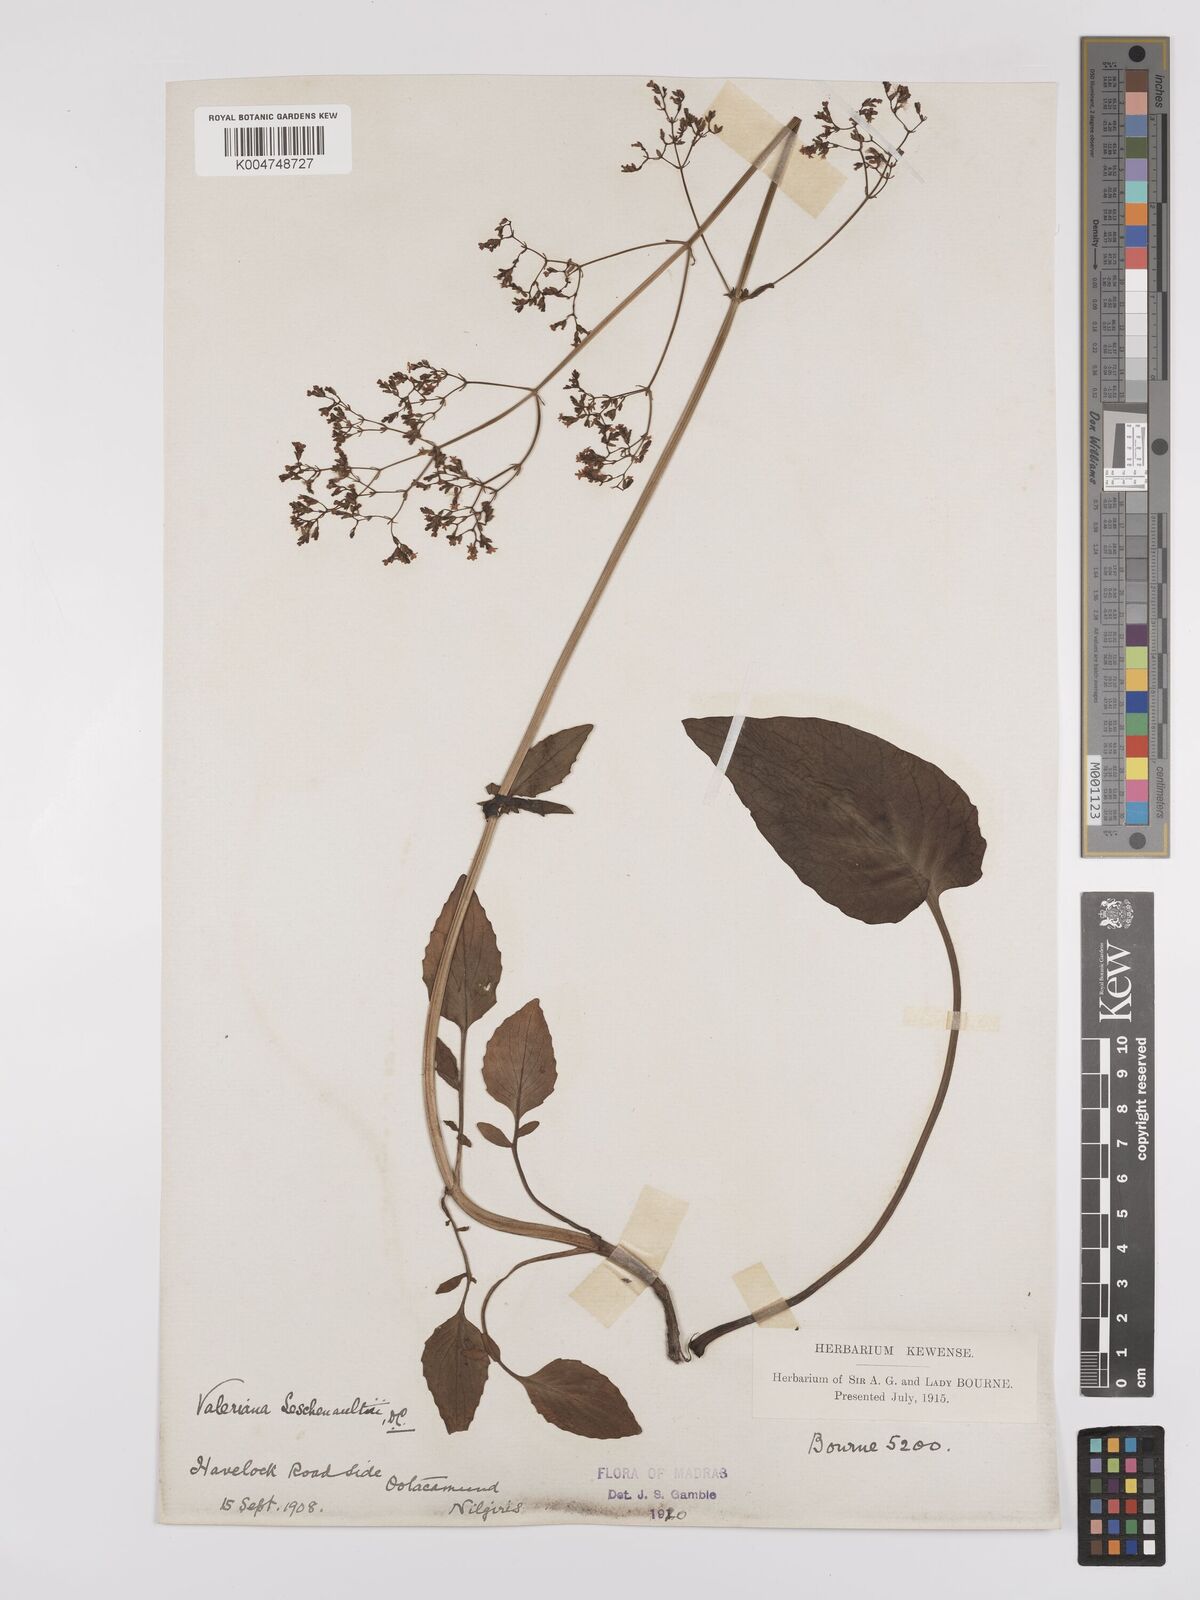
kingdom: Plantae
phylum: Tracheophyta
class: Magnoliopsida
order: Dipsacales
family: Caprifoliaceae
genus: Valeriana
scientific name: Valeriana leschenaultii
